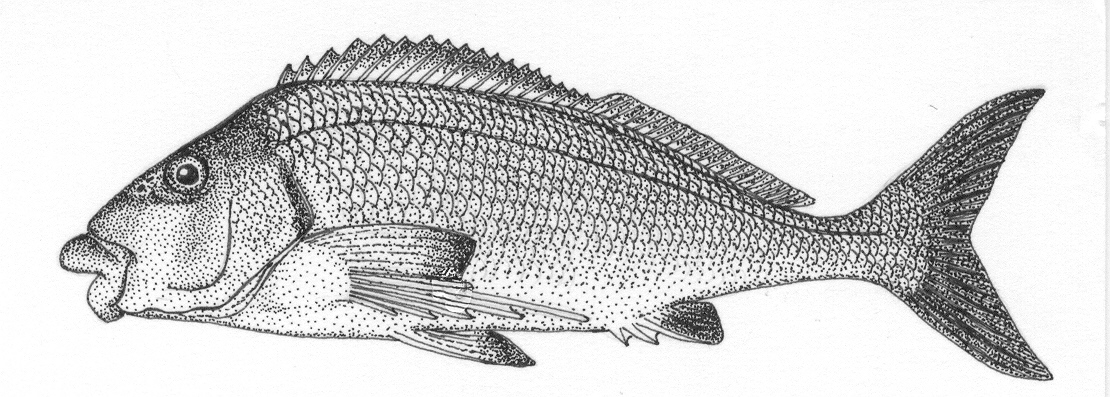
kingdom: Animalia
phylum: Chordata
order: Perciformes
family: Cheilodactylidae
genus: Chirodactylus
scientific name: Chirodactylus grandis
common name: Bank steenbras
